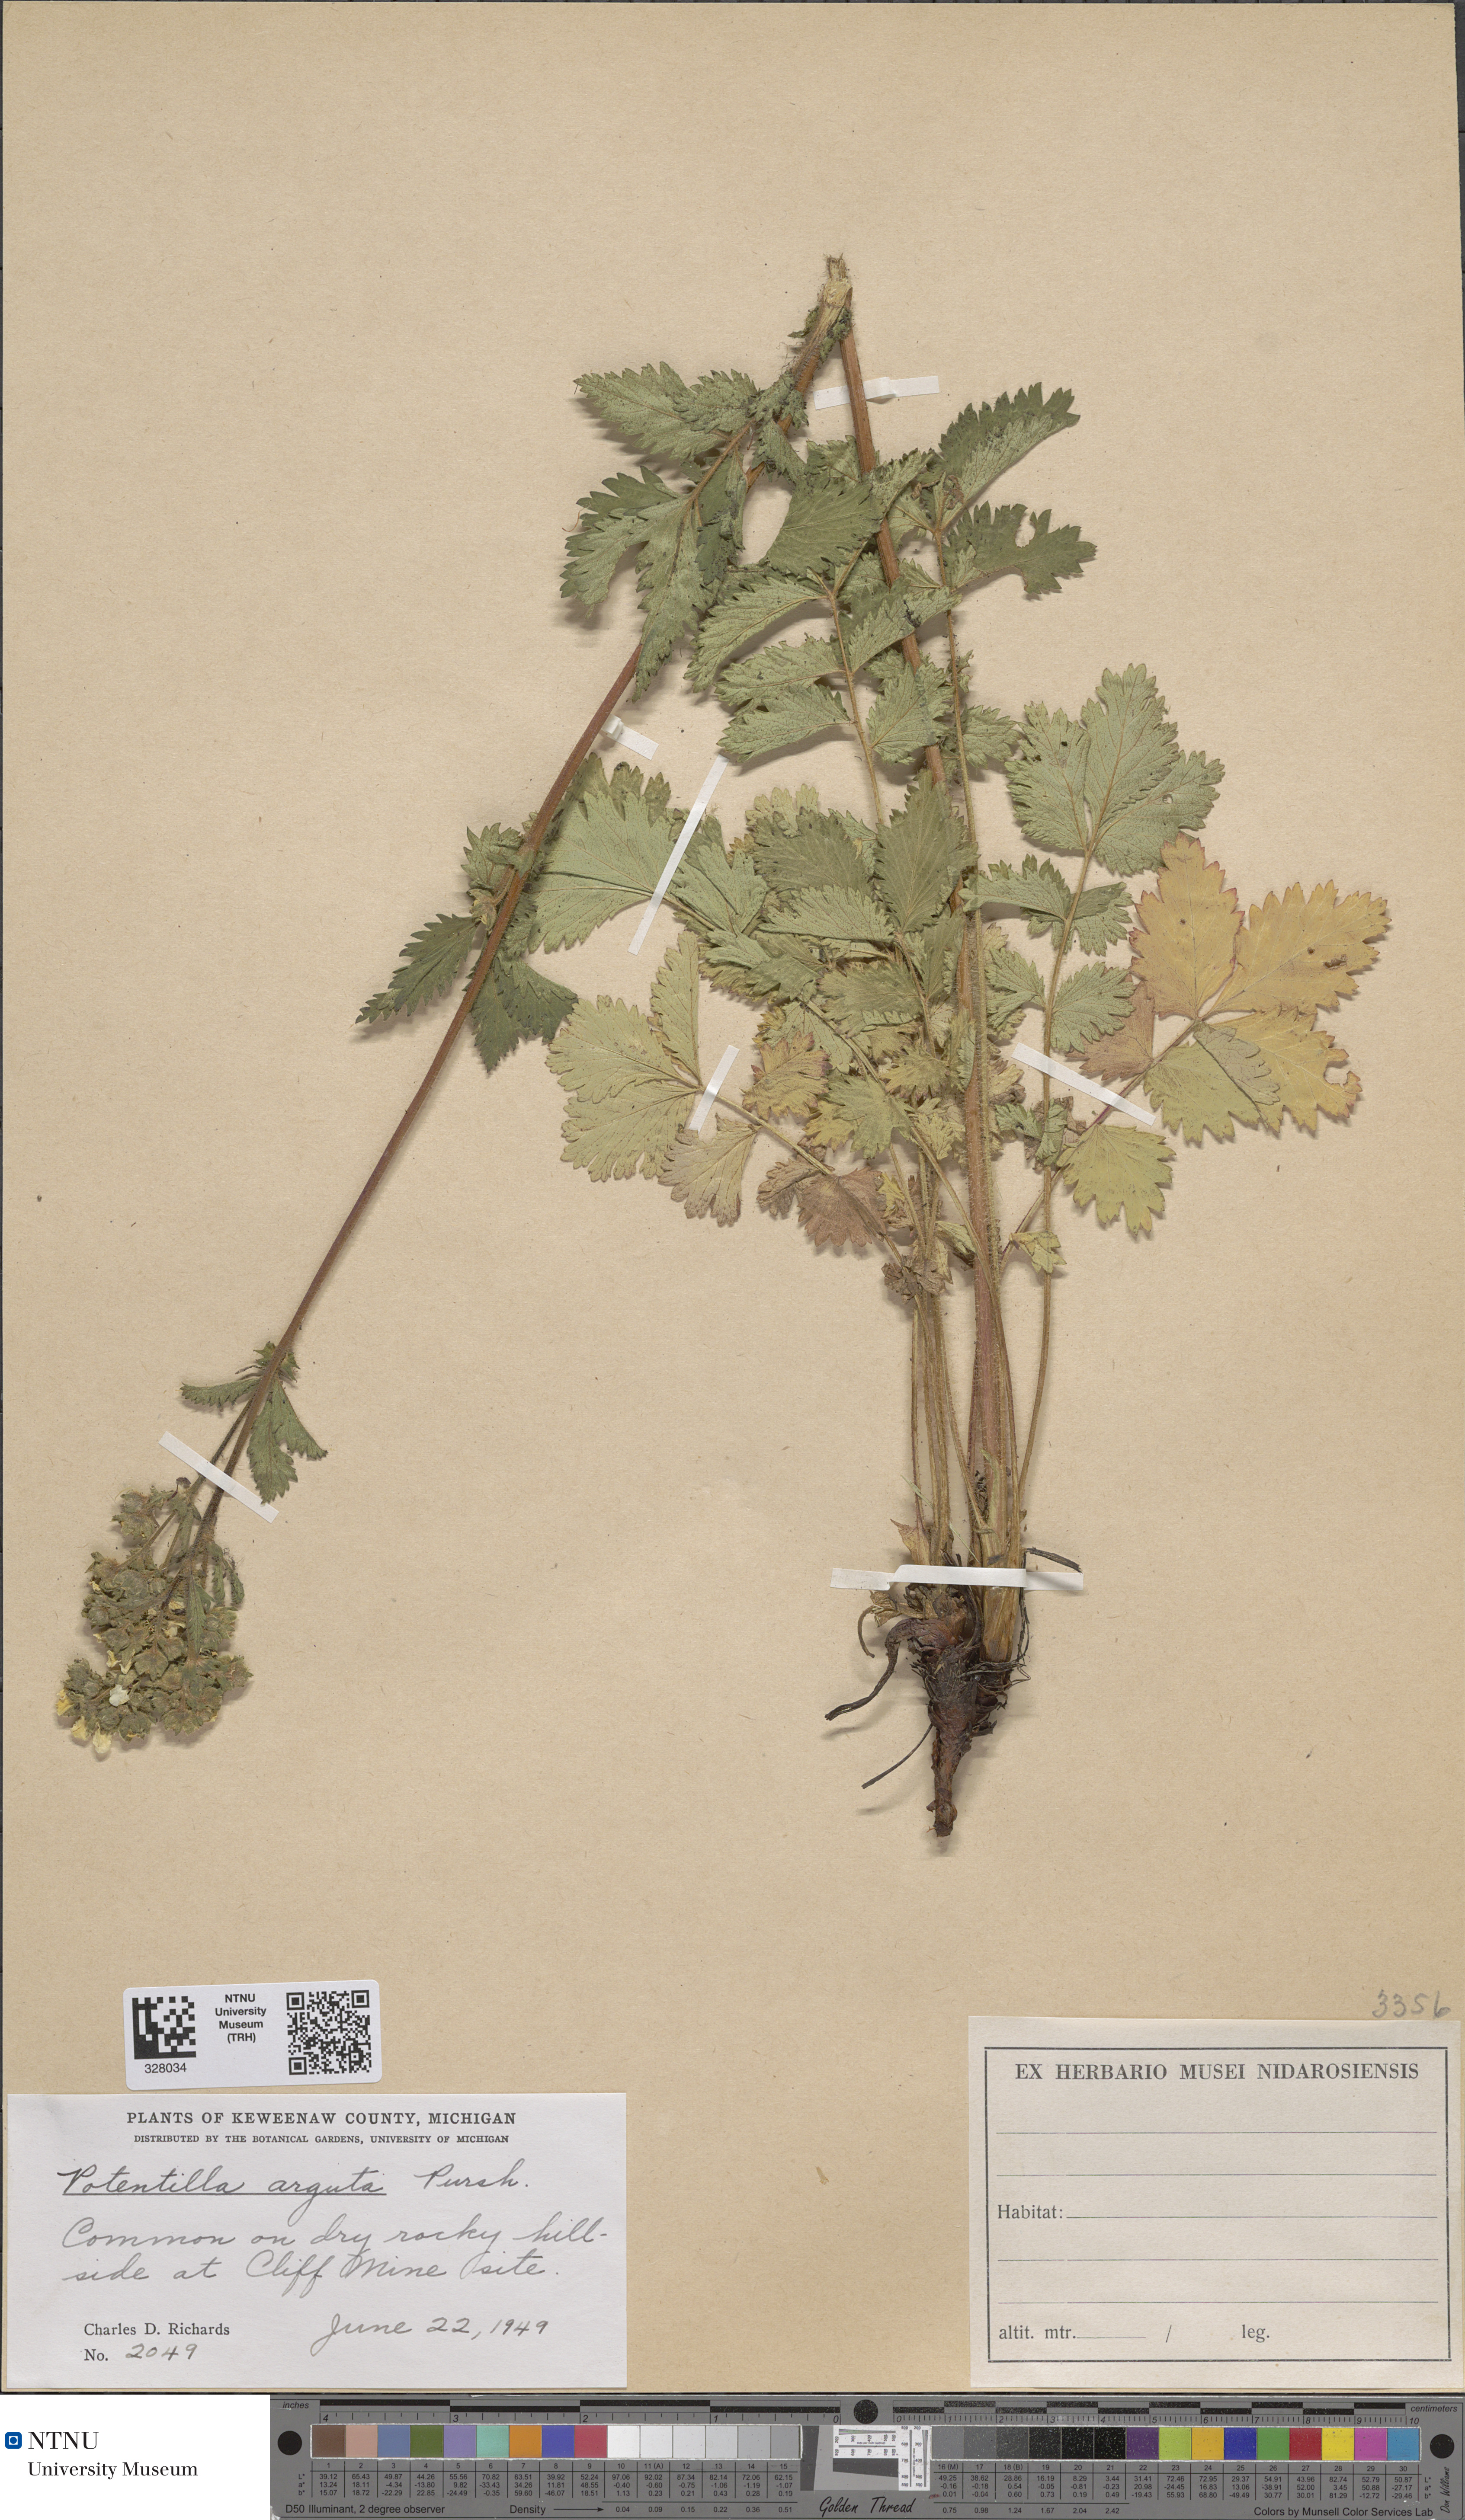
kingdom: Plantae
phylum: Tracheophyta
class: Magnoliopsida
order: Rosales
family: Rosaceae
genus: Drymocallis
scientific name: Drymocallis arguta
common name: Tall cinquefoil
